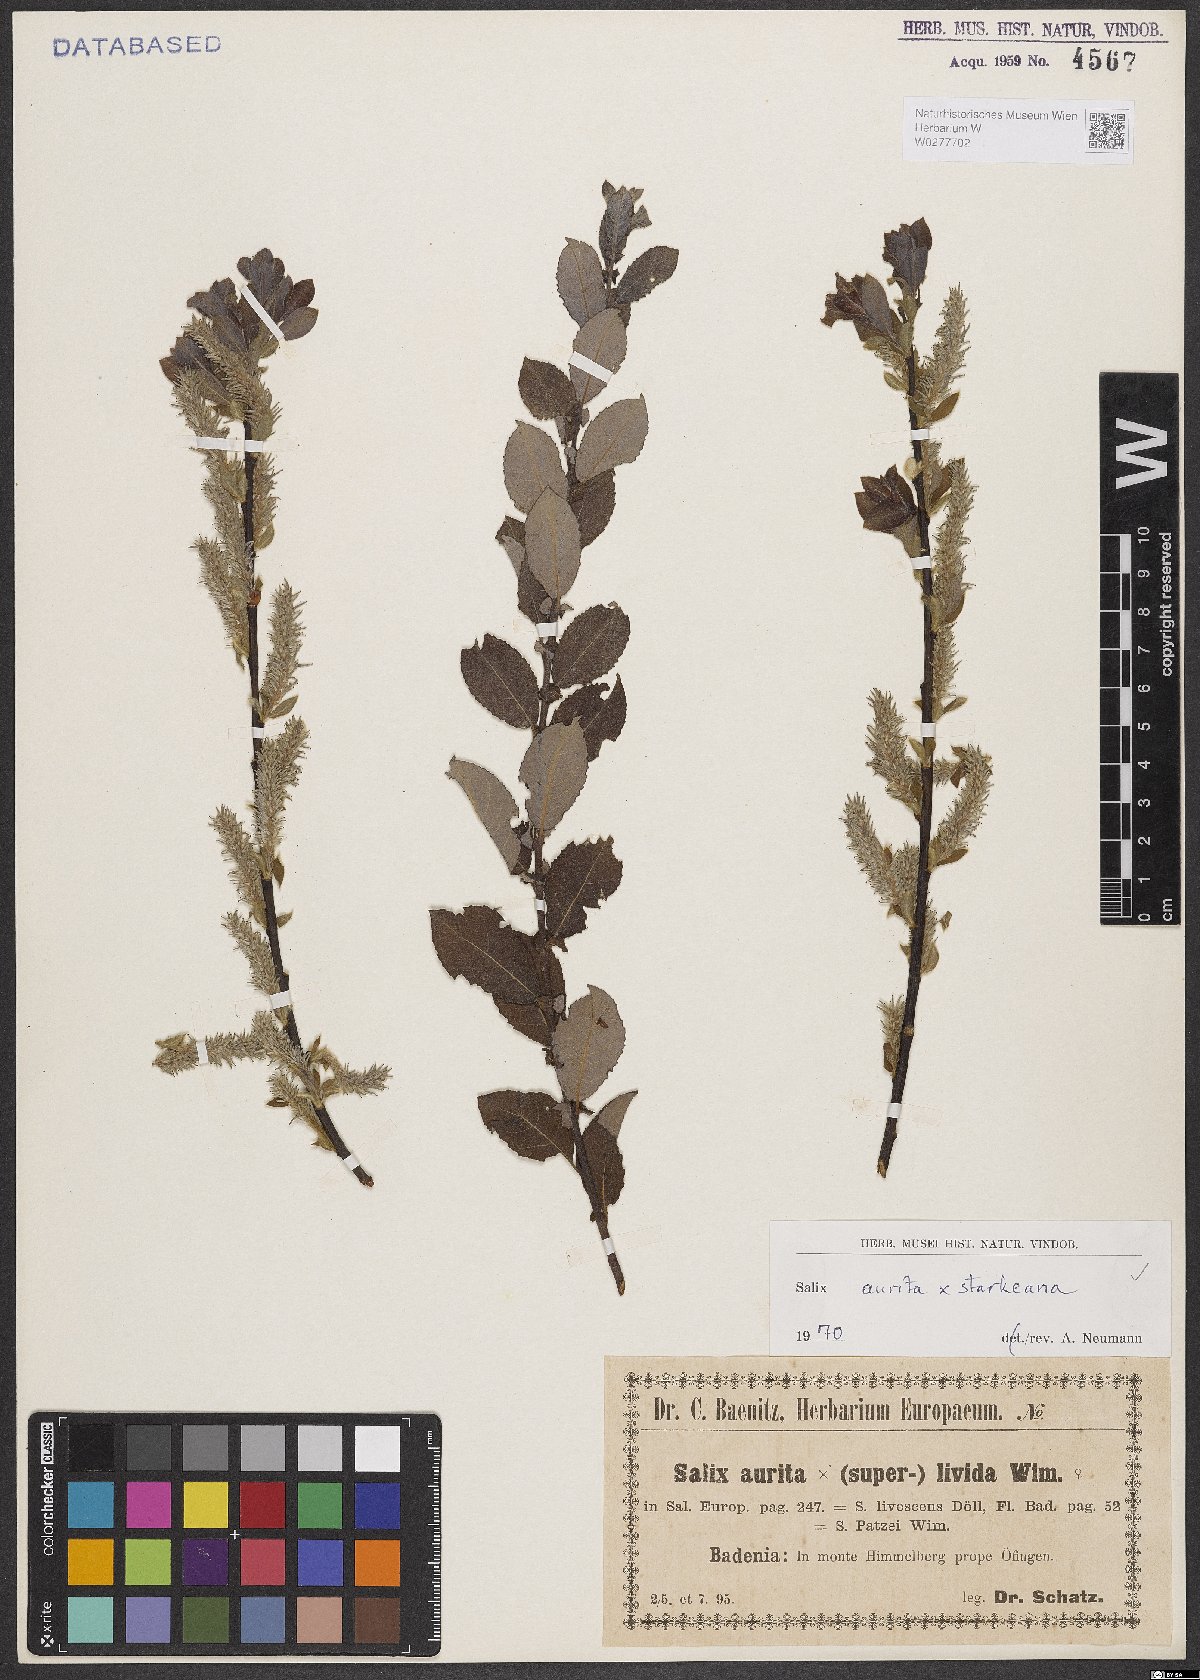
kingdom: Plantae
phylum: Tracheophyta
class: Magnoliopsida
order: Malpighiales
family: Salicaceae
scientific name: Salicaceae
